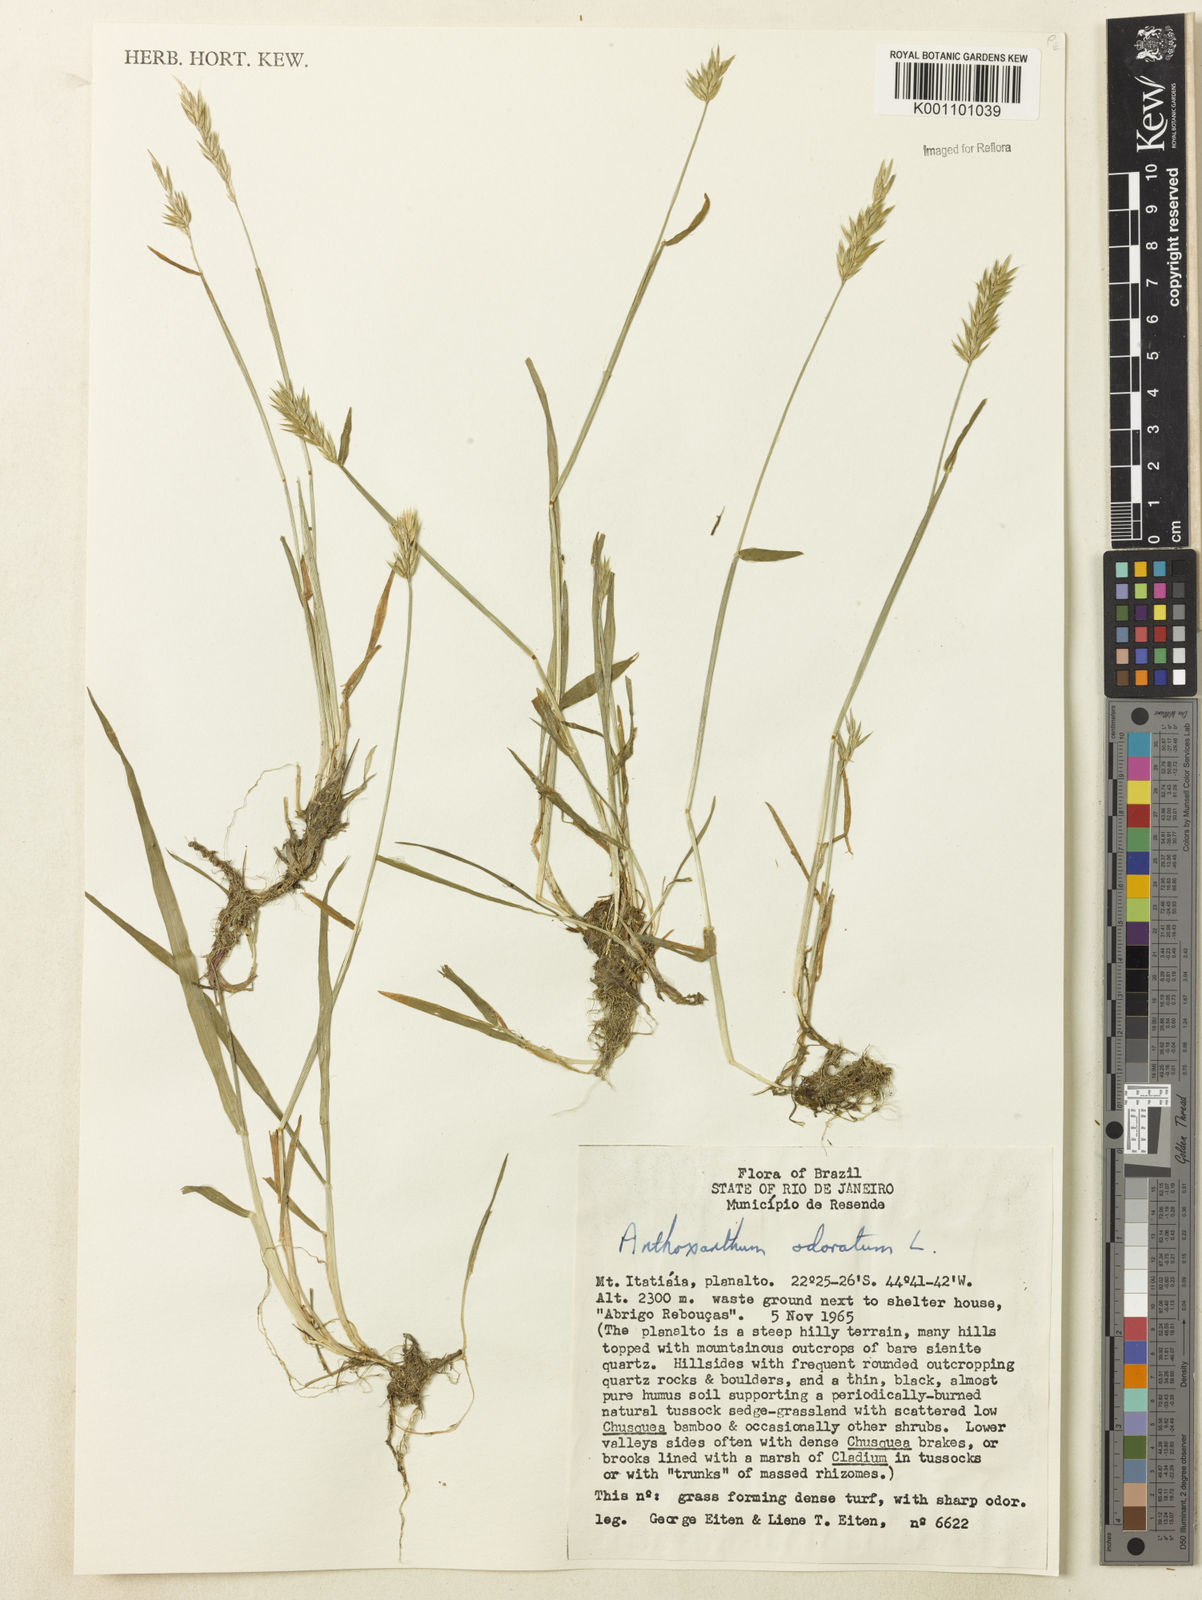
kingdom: Plantae
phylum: Tracheophyta
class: Liliopsida
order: Poales
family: Poaceae
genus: Anthoxanthum
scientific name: Anthoxanthum odoratum
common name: Sweet vernalgrass
